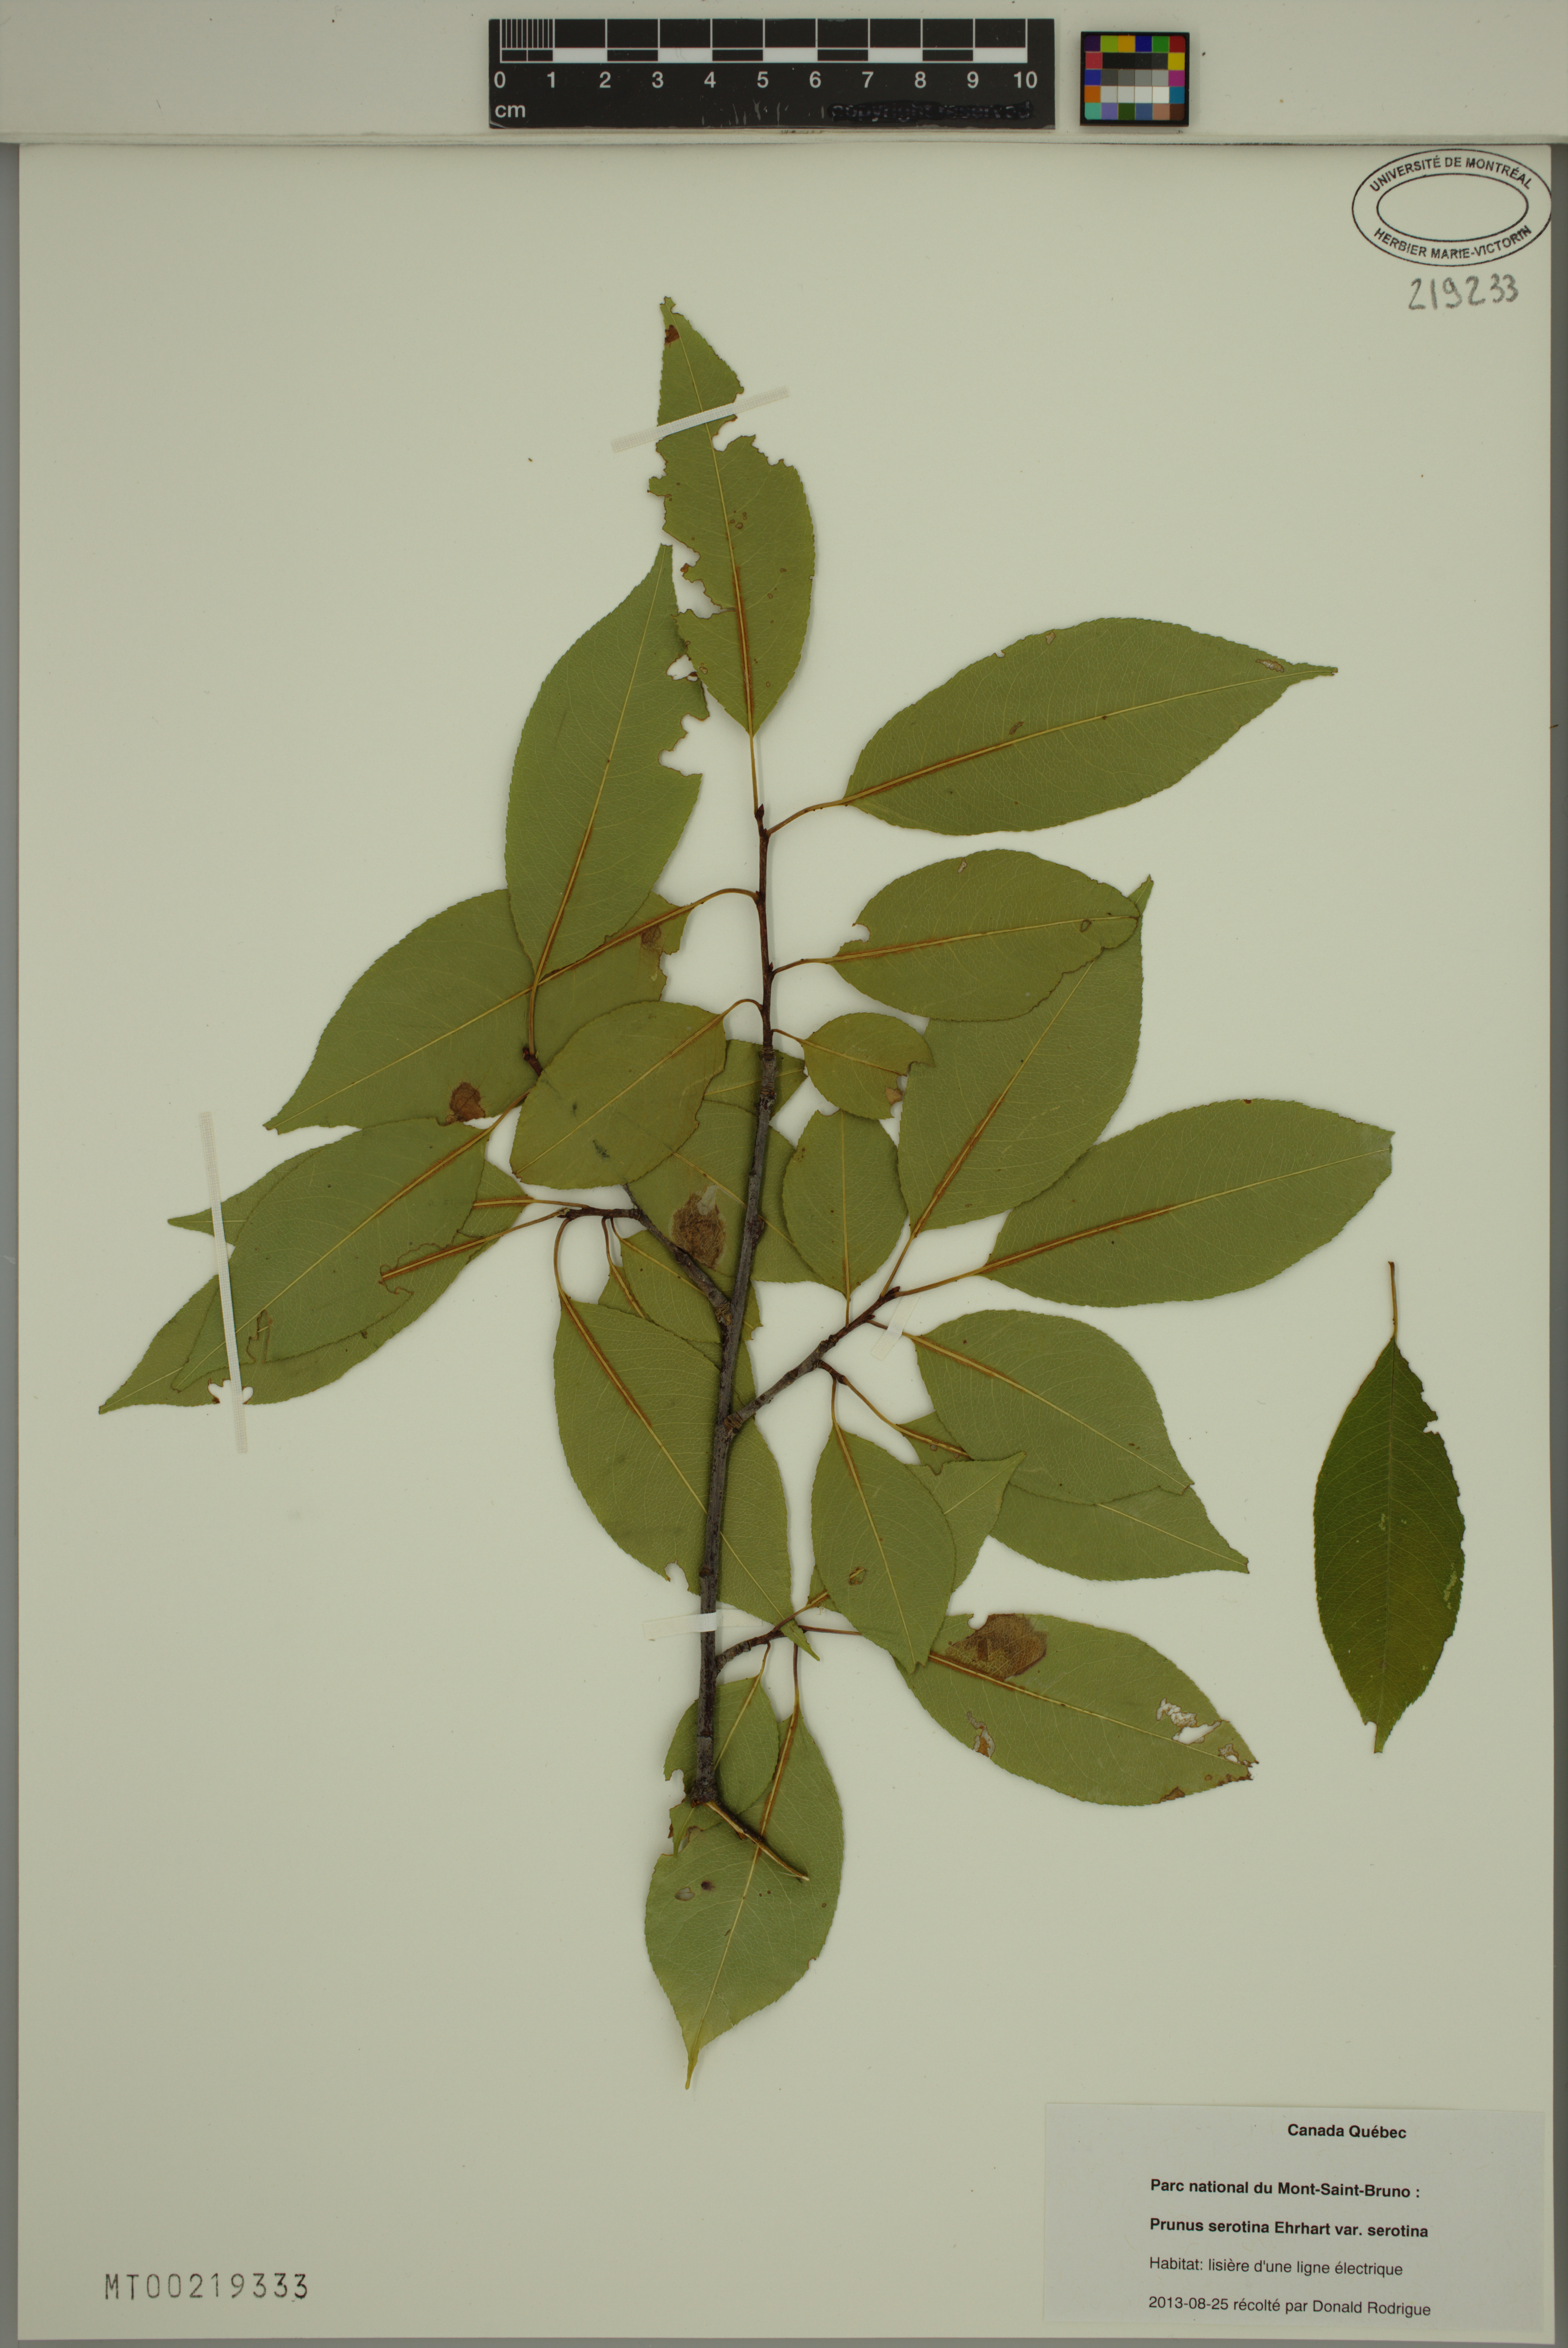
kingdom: Plantae
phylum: Tracheophyta
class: Magnoliopsida
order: Rosales
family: Rosaceae
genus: Prunus
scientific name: Prunus serotina
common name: Black cherry
